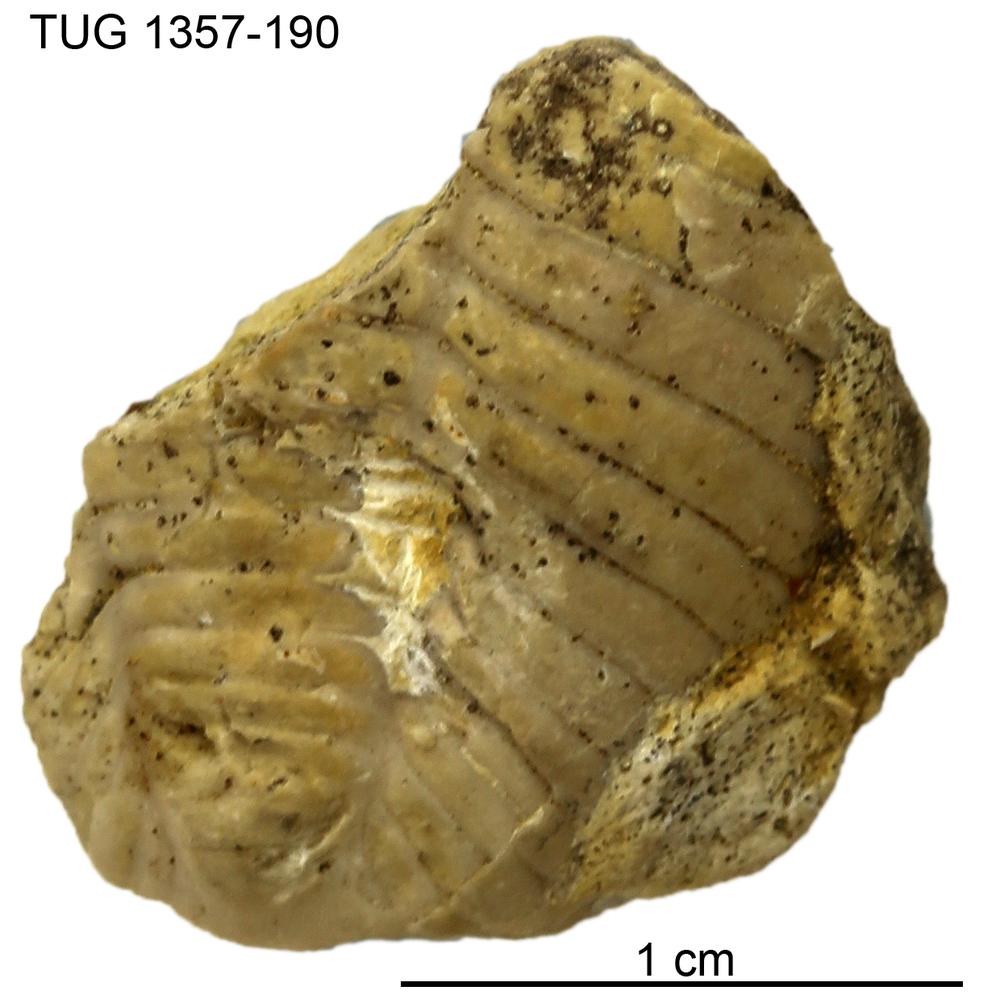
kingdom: Animalia
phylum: Arthropoda
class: Trilobita
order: Phacopida
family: Pterygometopidae
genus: Chasmops
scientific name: Chasmops macrourus
